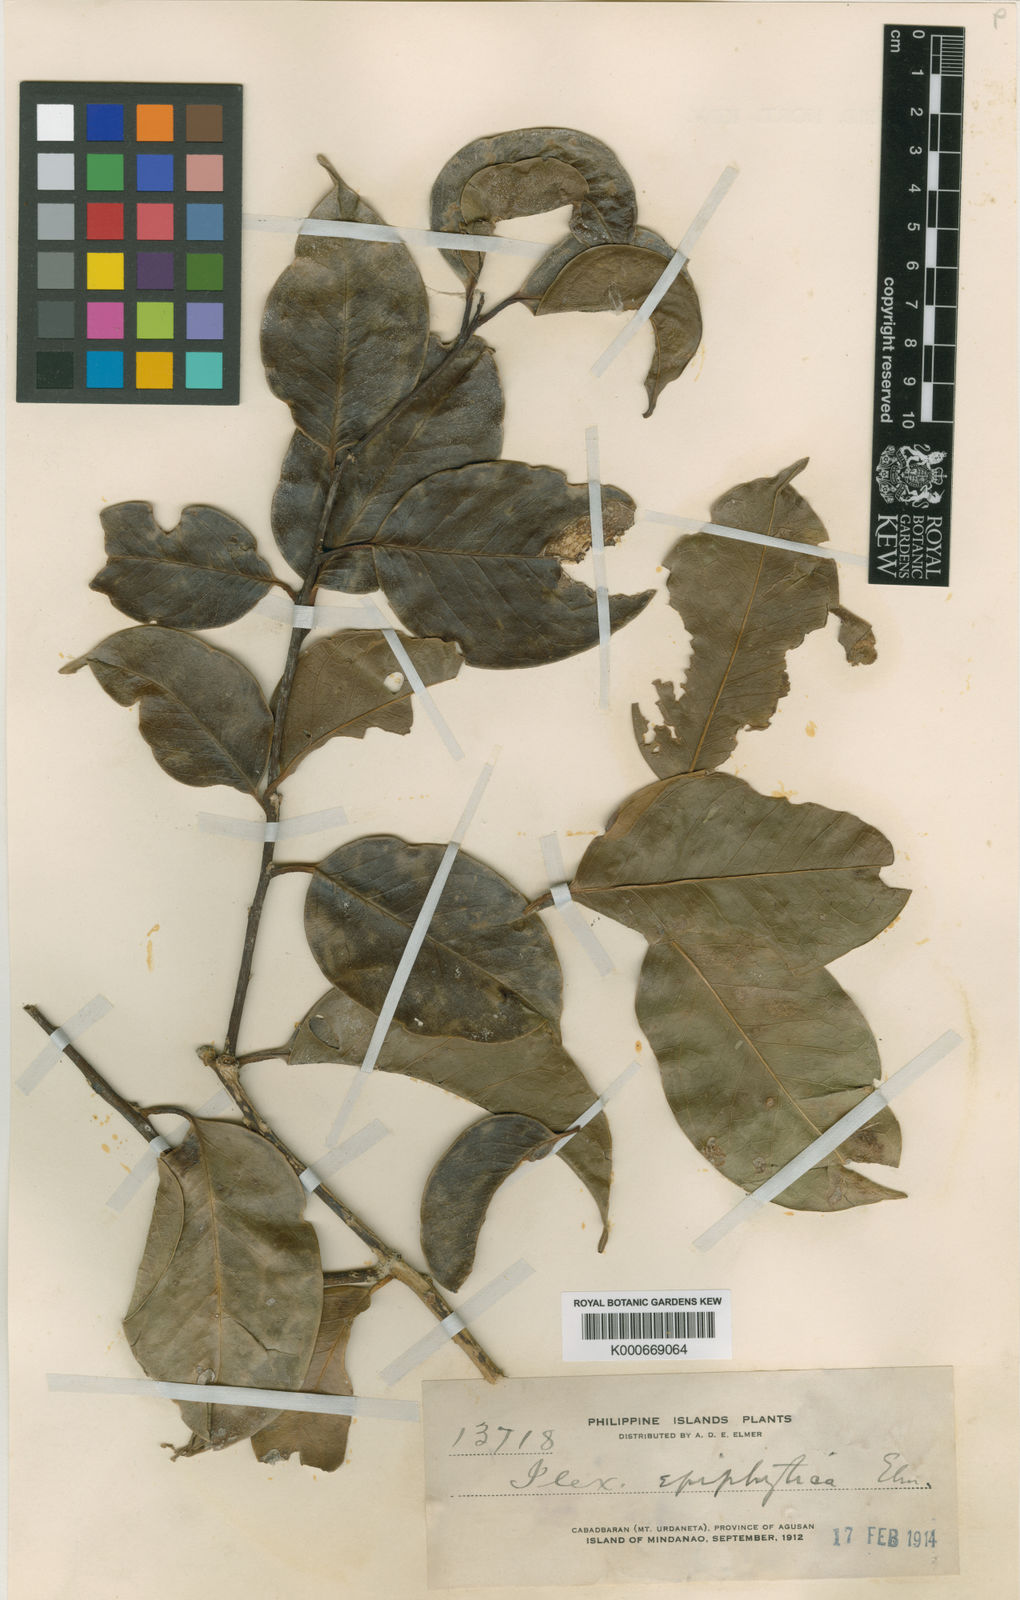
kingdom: Plantae
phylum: Tracheophyta
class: Magnoliopsida
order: Aquifoliales
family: Aquifoliaceae
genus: Ilex
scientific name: Ilex wenzelii
